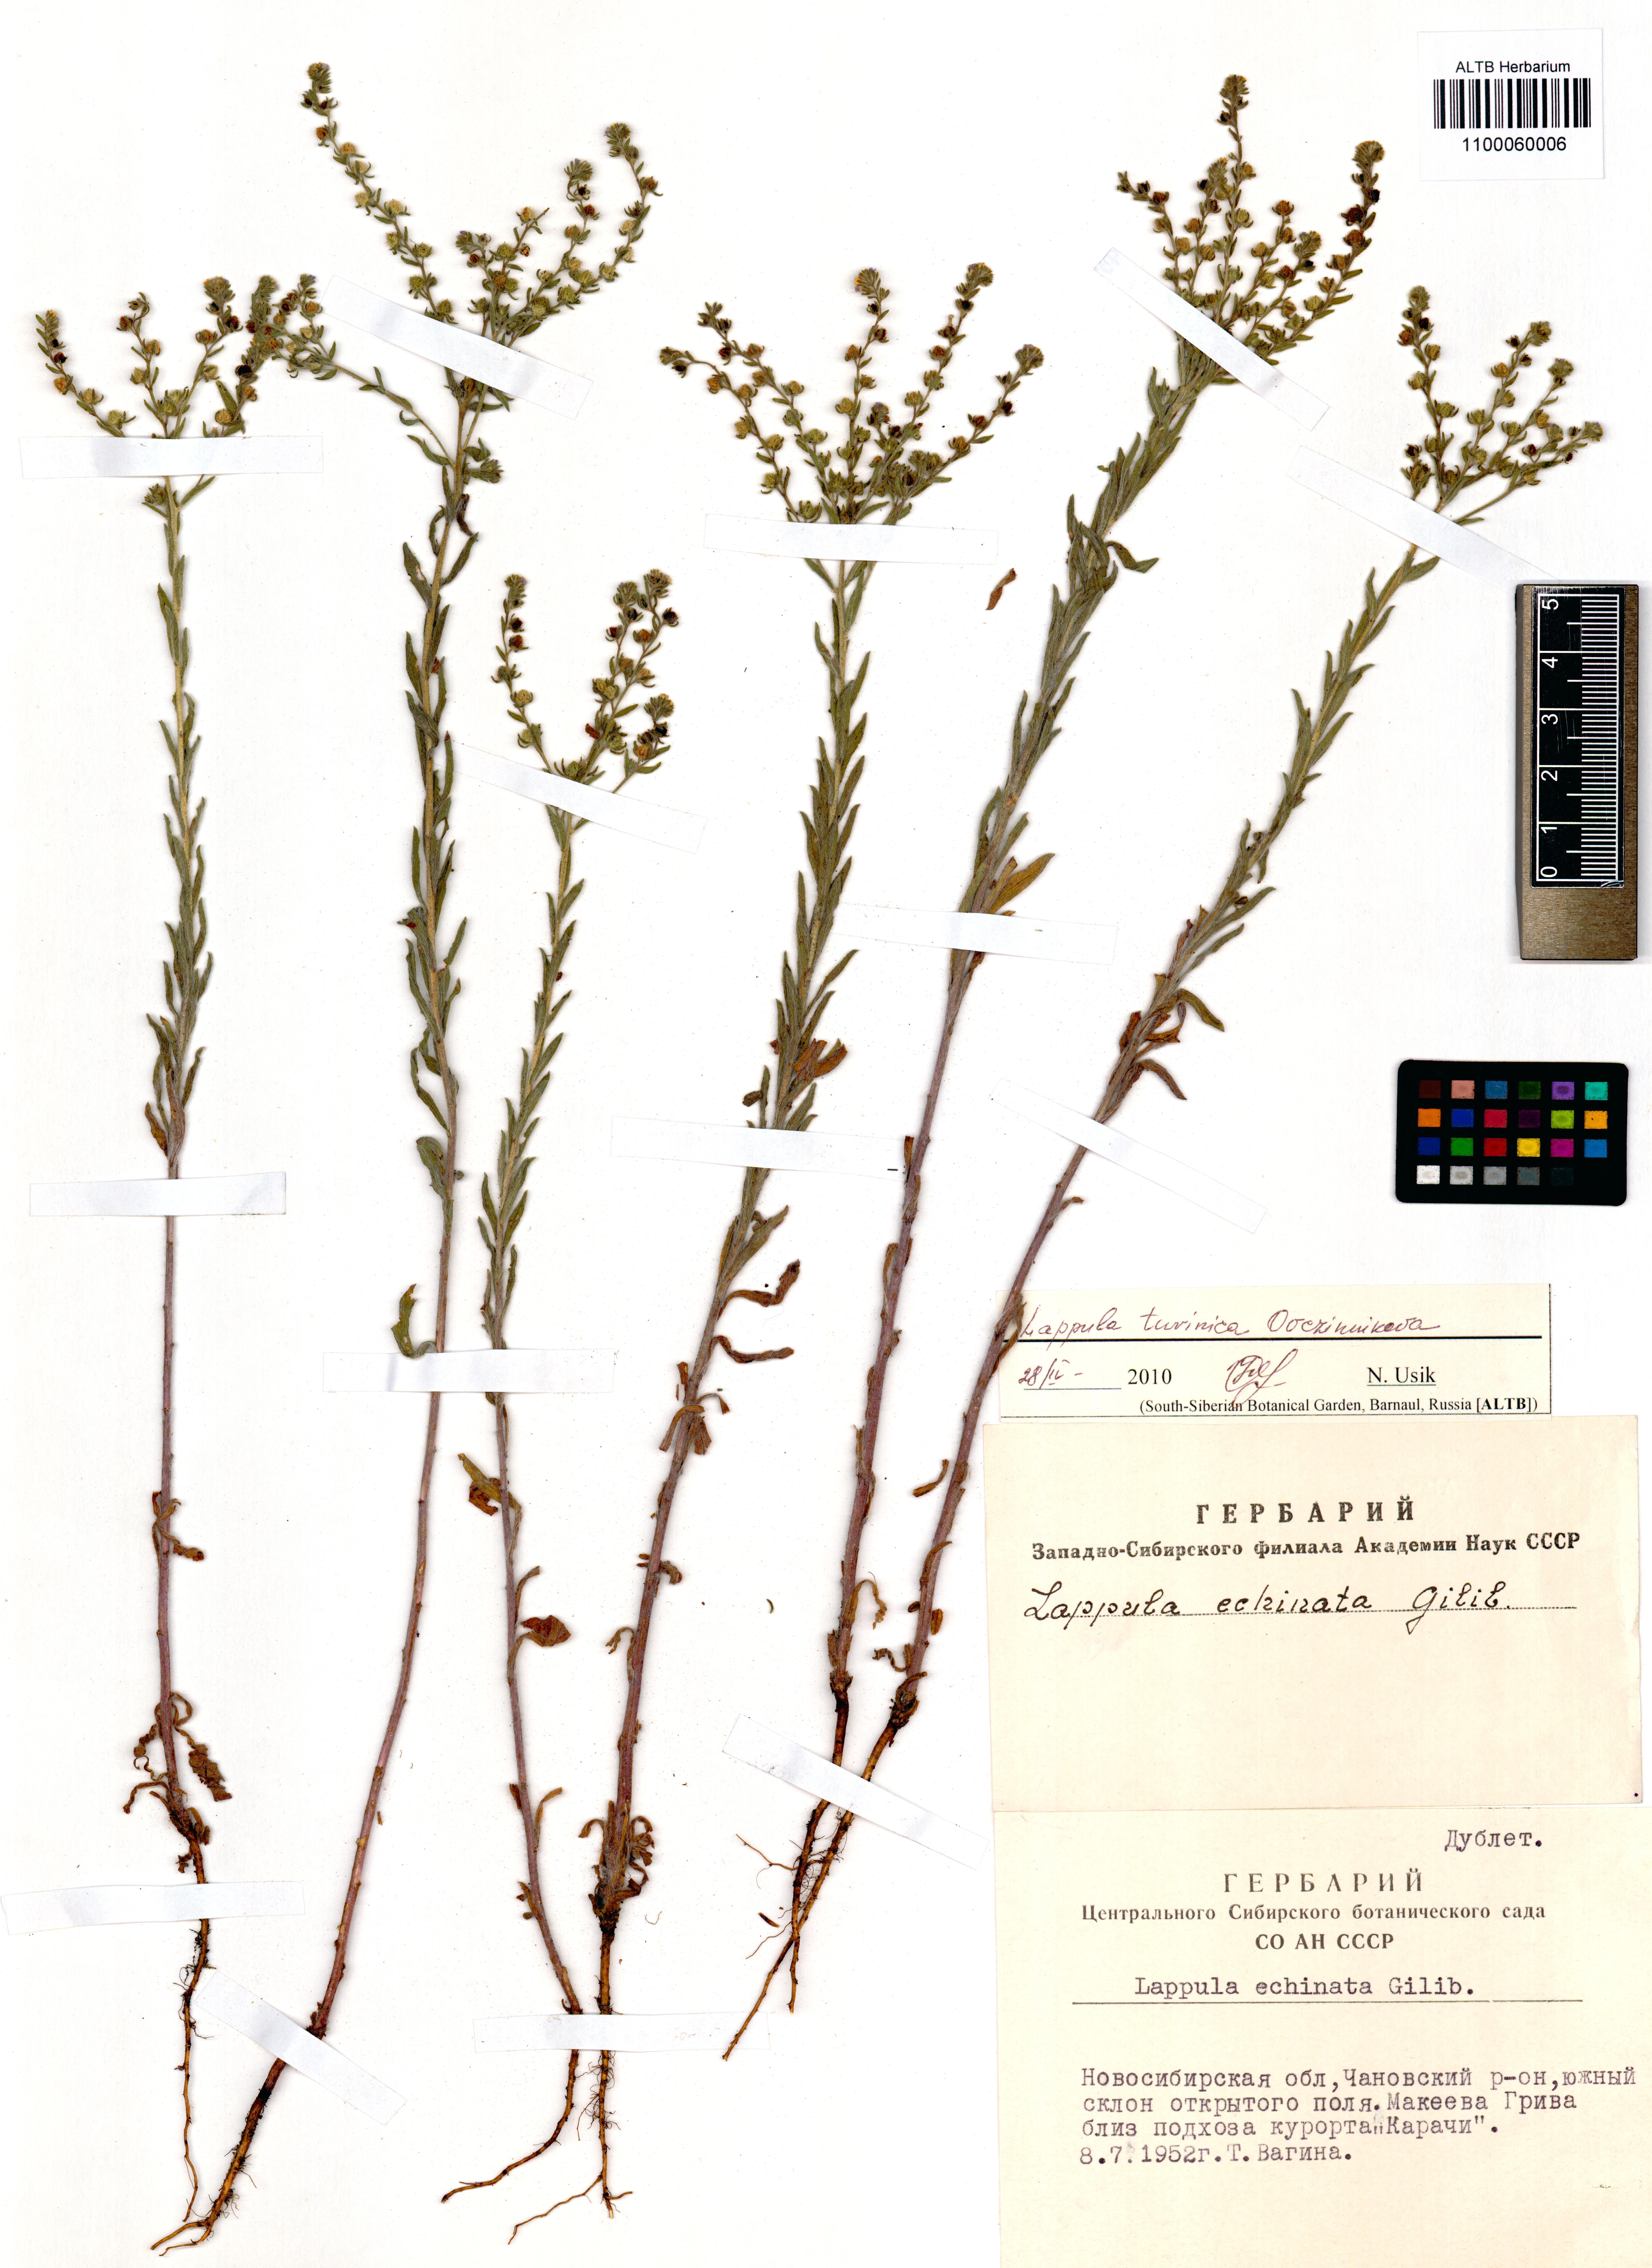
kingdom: Plantae
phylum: Tracheophyta
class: Magnoliopsida
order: Boraginales
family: Boraginaceae
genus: Lappula
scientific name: Lappula tuvinica
